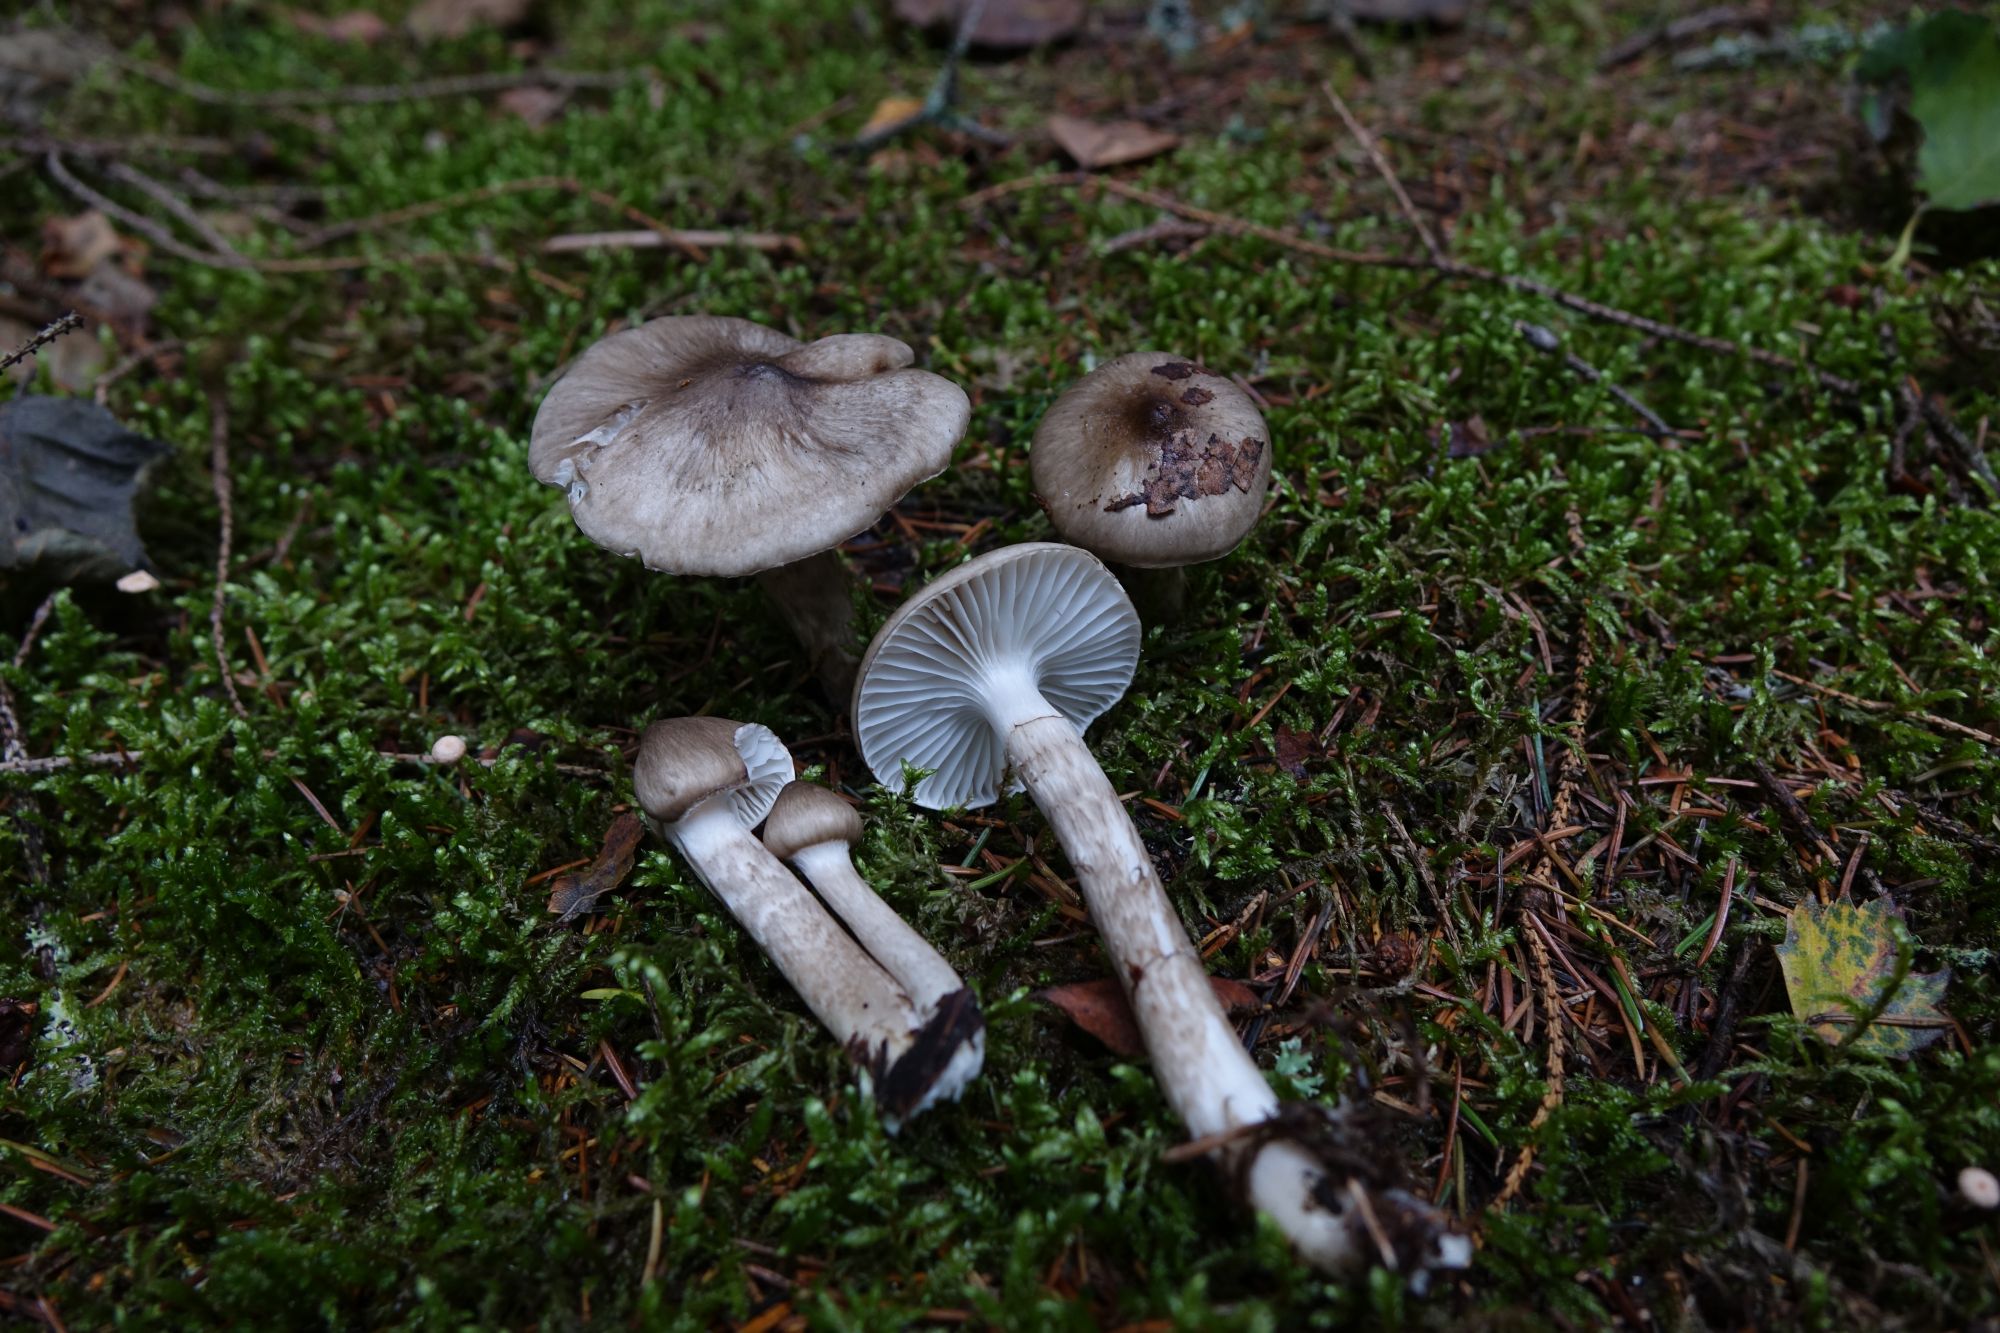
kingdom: Fungi
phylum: Basidiomycota
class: Agaricomycetes
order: Agaricales
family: Hygrophoraceae
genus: Hygrophorus
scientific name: Hygrophorus korhonenii
